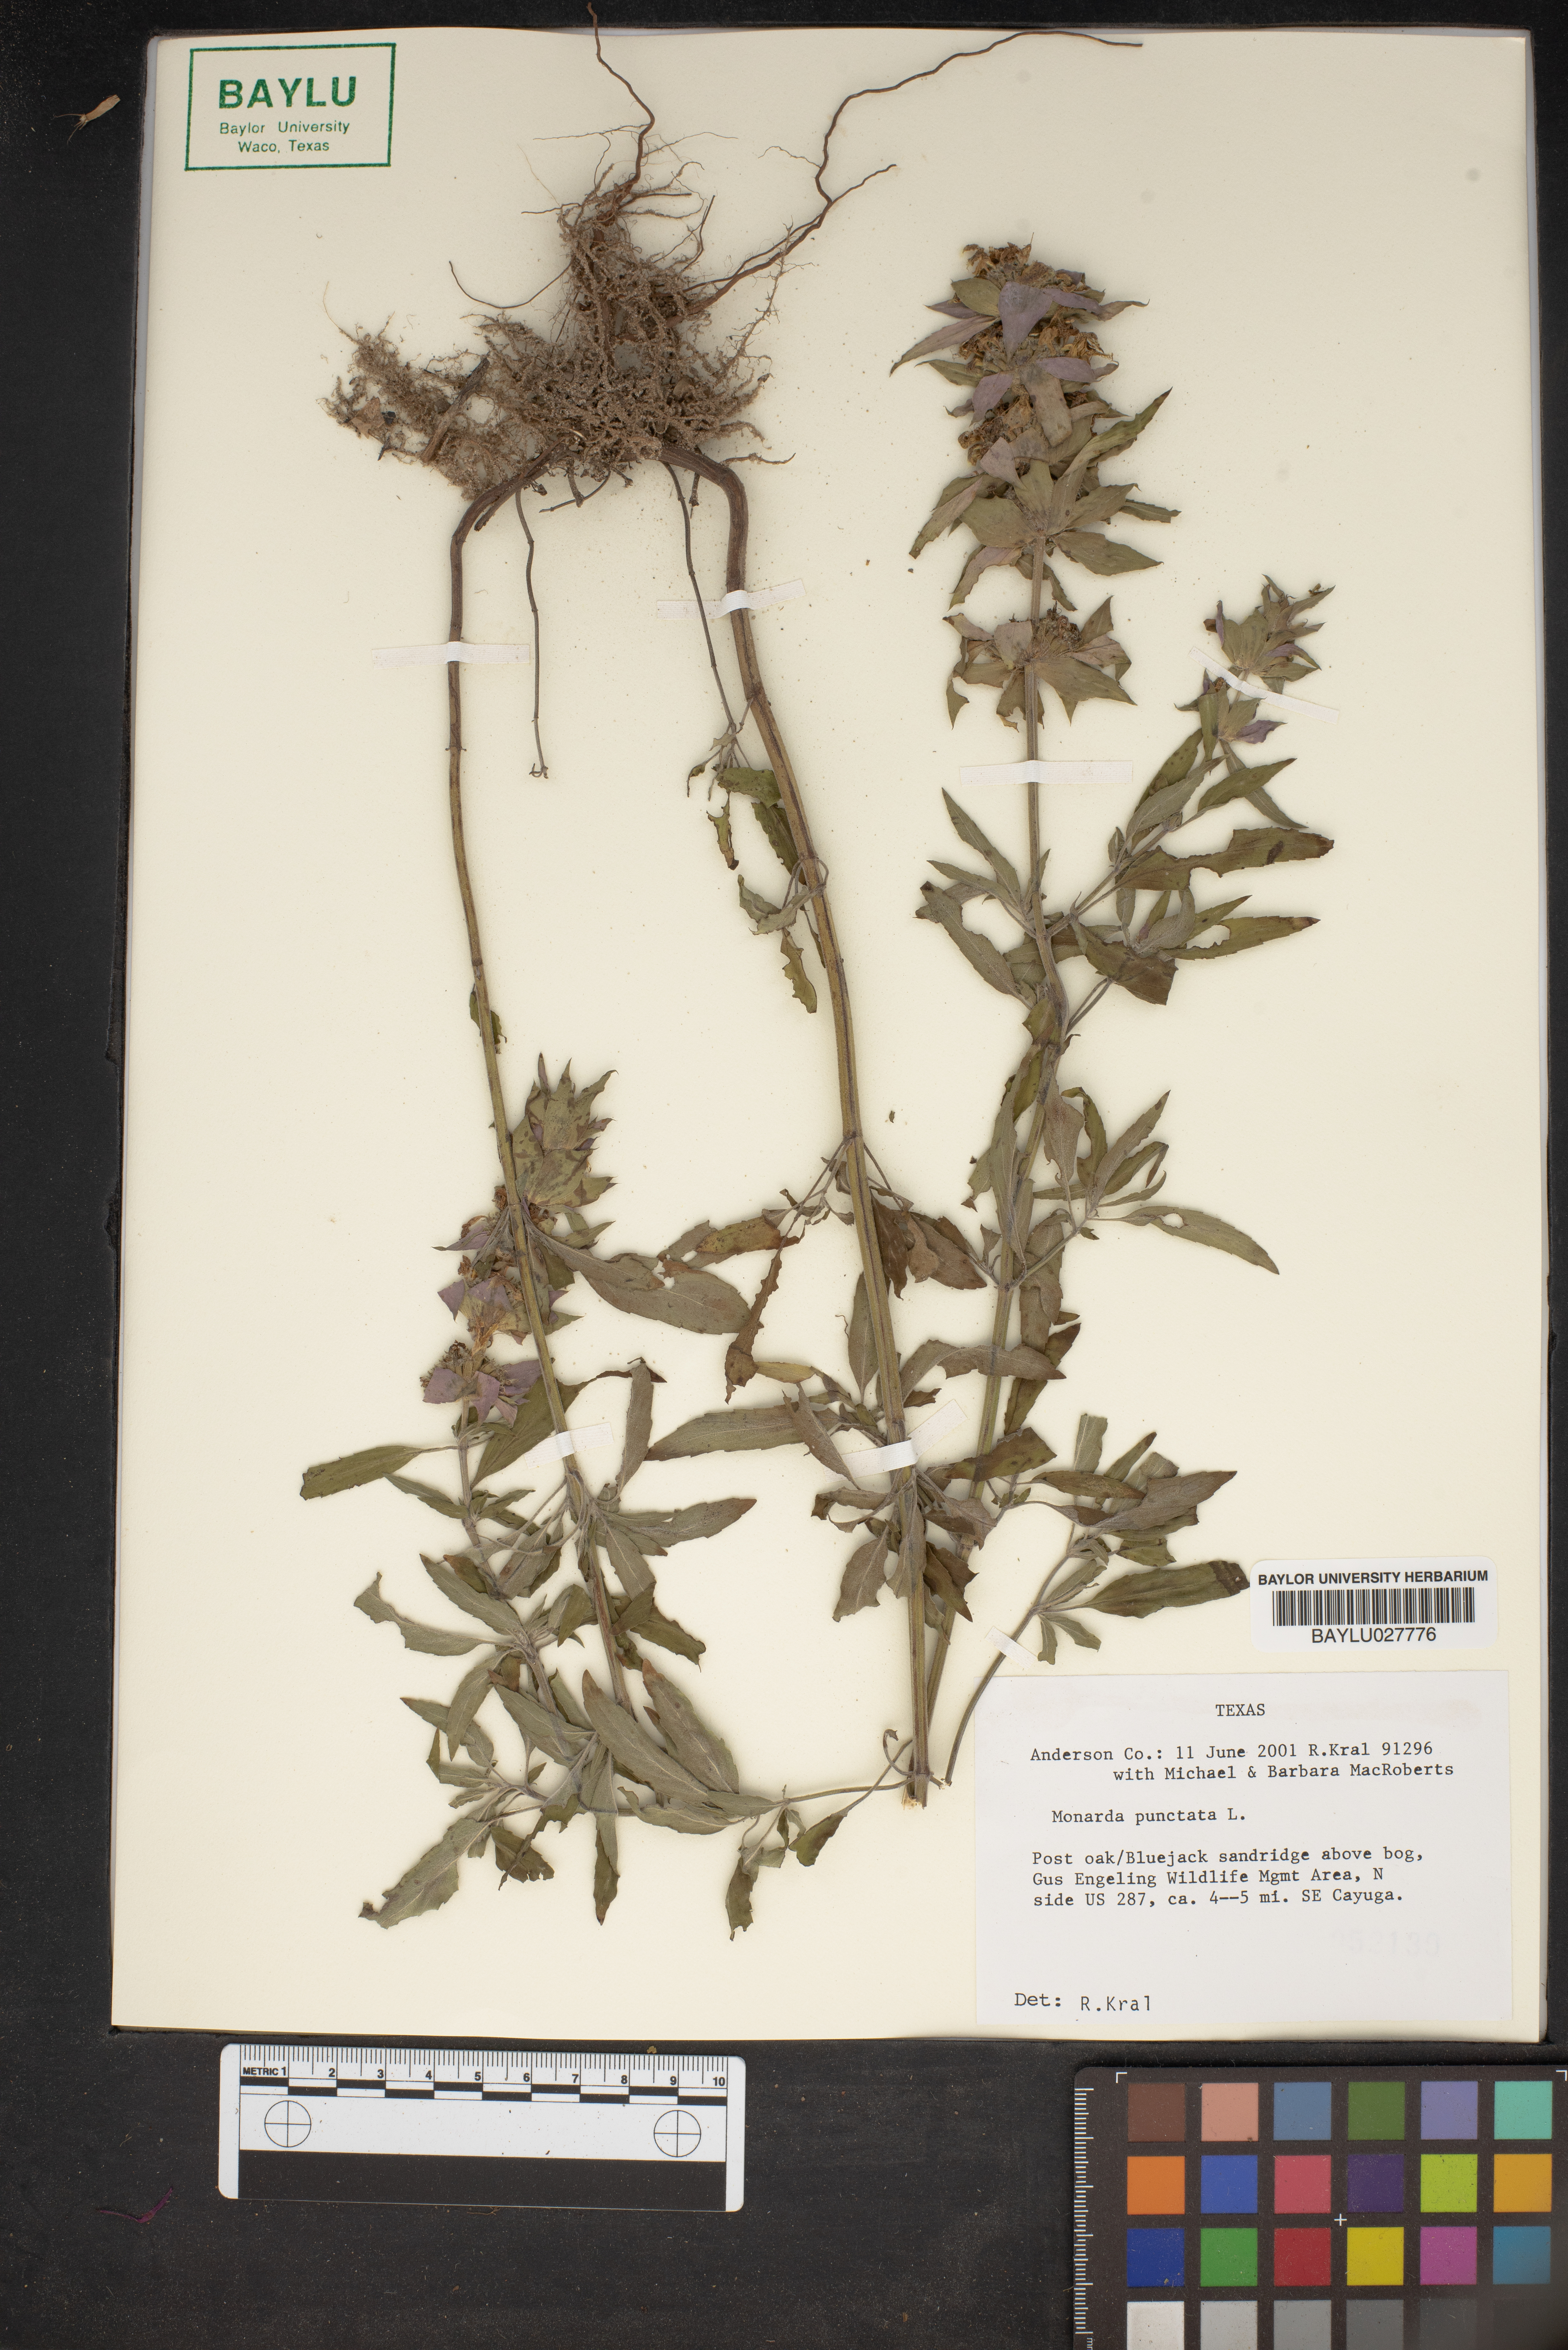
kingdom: Plantae
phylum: Tracheophyta
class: Magnoliopsida
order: Lamiales
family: Lamiaceae
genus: Monarda
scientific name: Monarda punctata
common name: Dotted monarda
